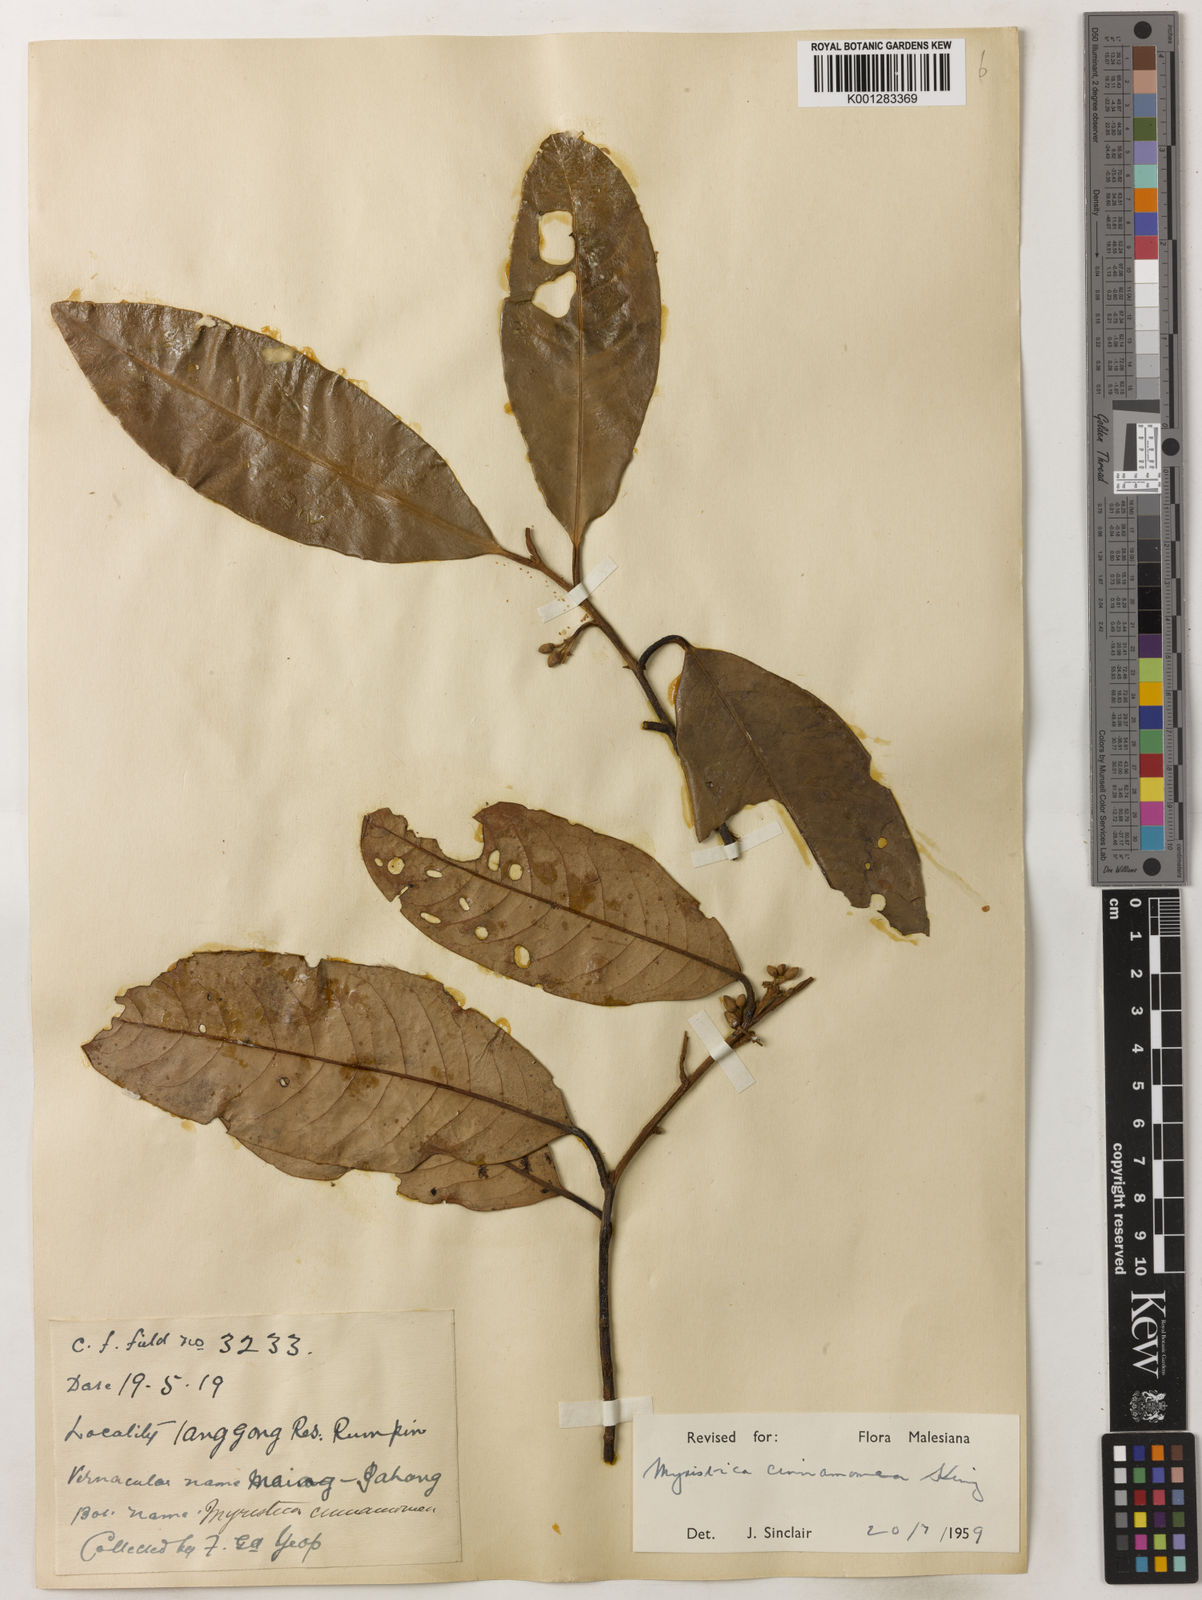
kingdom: Plantae
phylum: Tracheophyta
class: Magnoliopsida
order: Magnoliales
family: Myristicaceae
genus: Myristica
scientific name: Myristica cinnamomea
